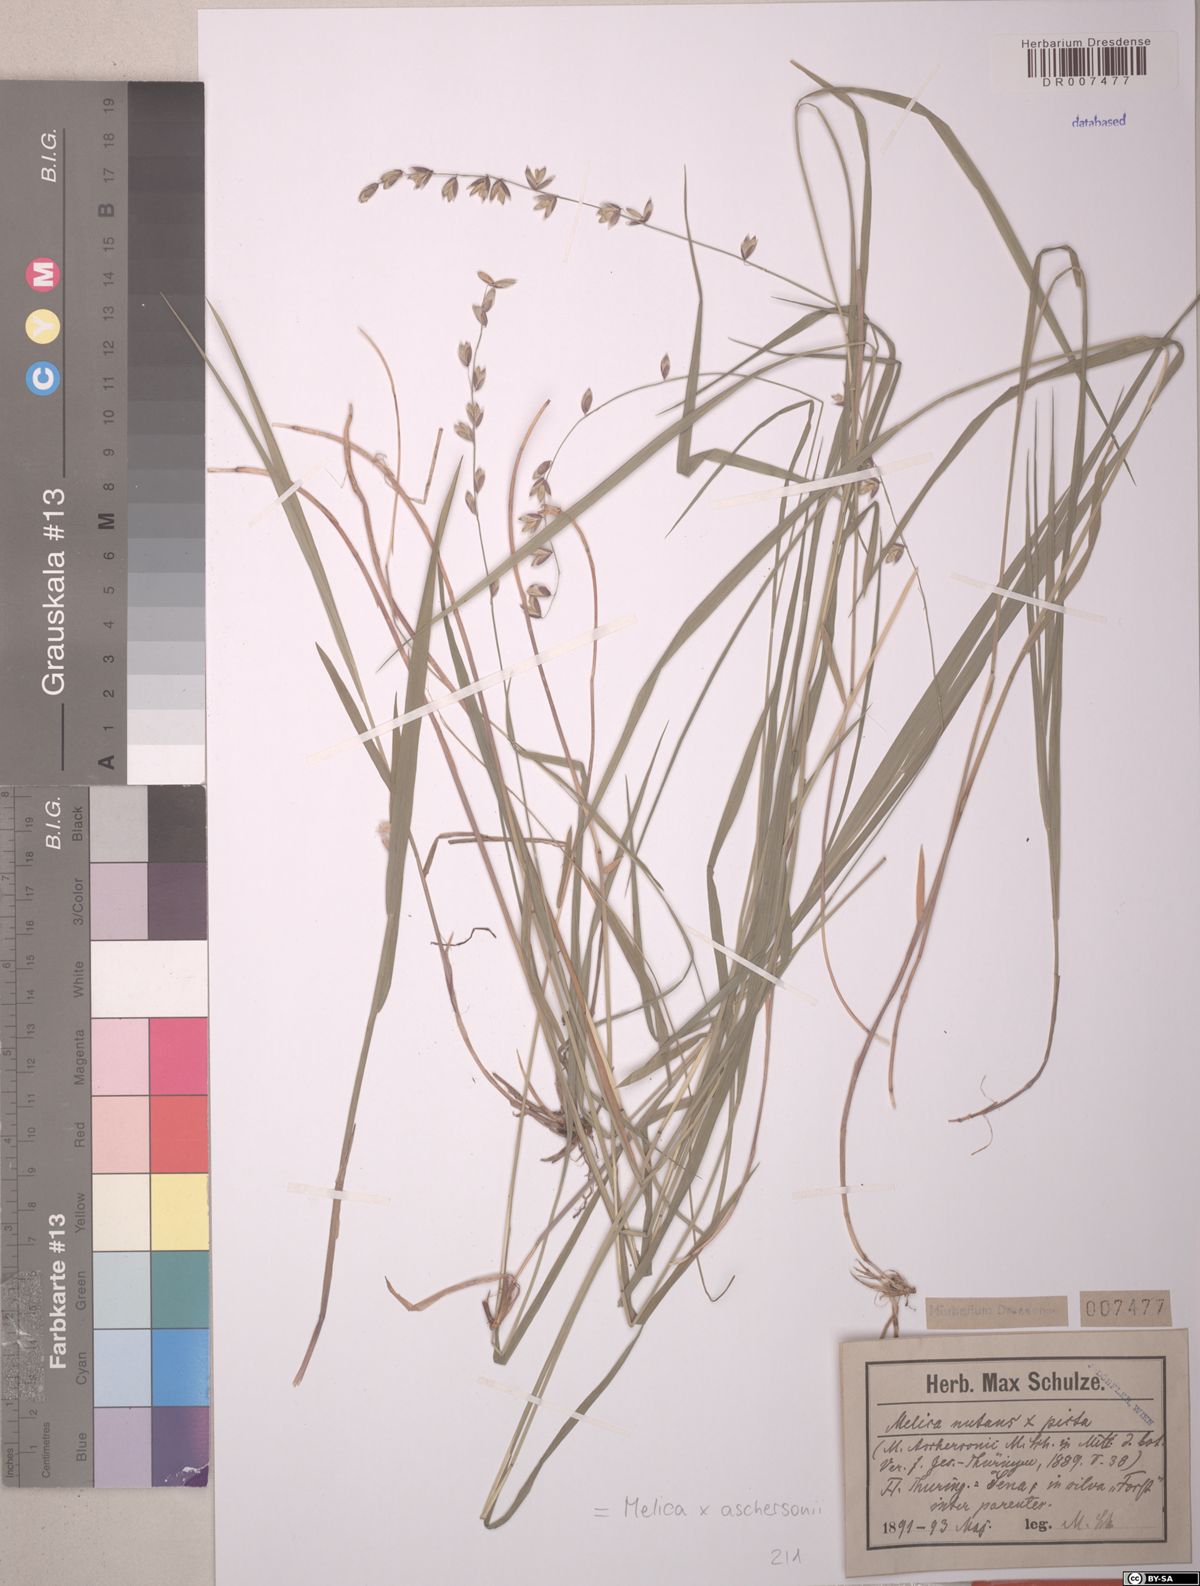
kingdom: Plantae
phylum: Tracheophyta
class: Liliopsida
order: Poales
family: Poaceae
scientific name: Poaceae
